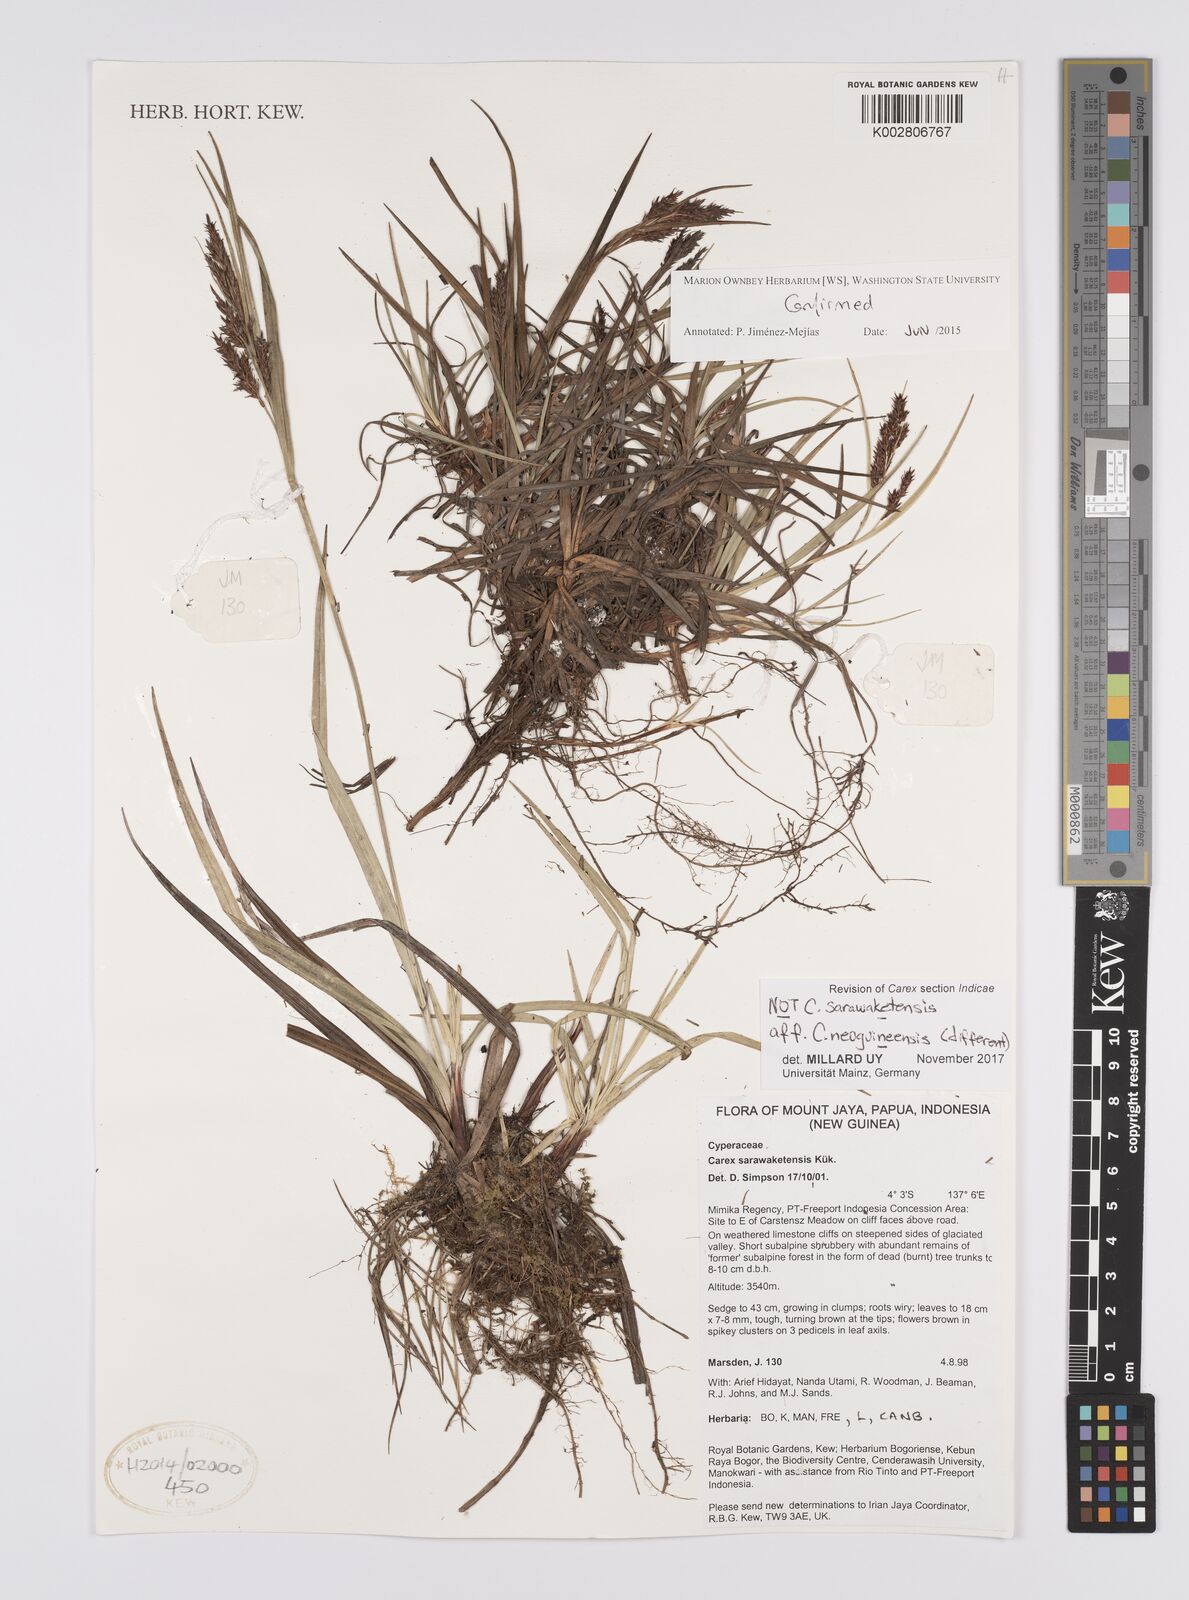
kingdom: Plantae
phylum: Tracheophyta
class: Liliopsida
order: Poales
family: Cyperaceae
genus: Carex
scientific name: Carex filicina
